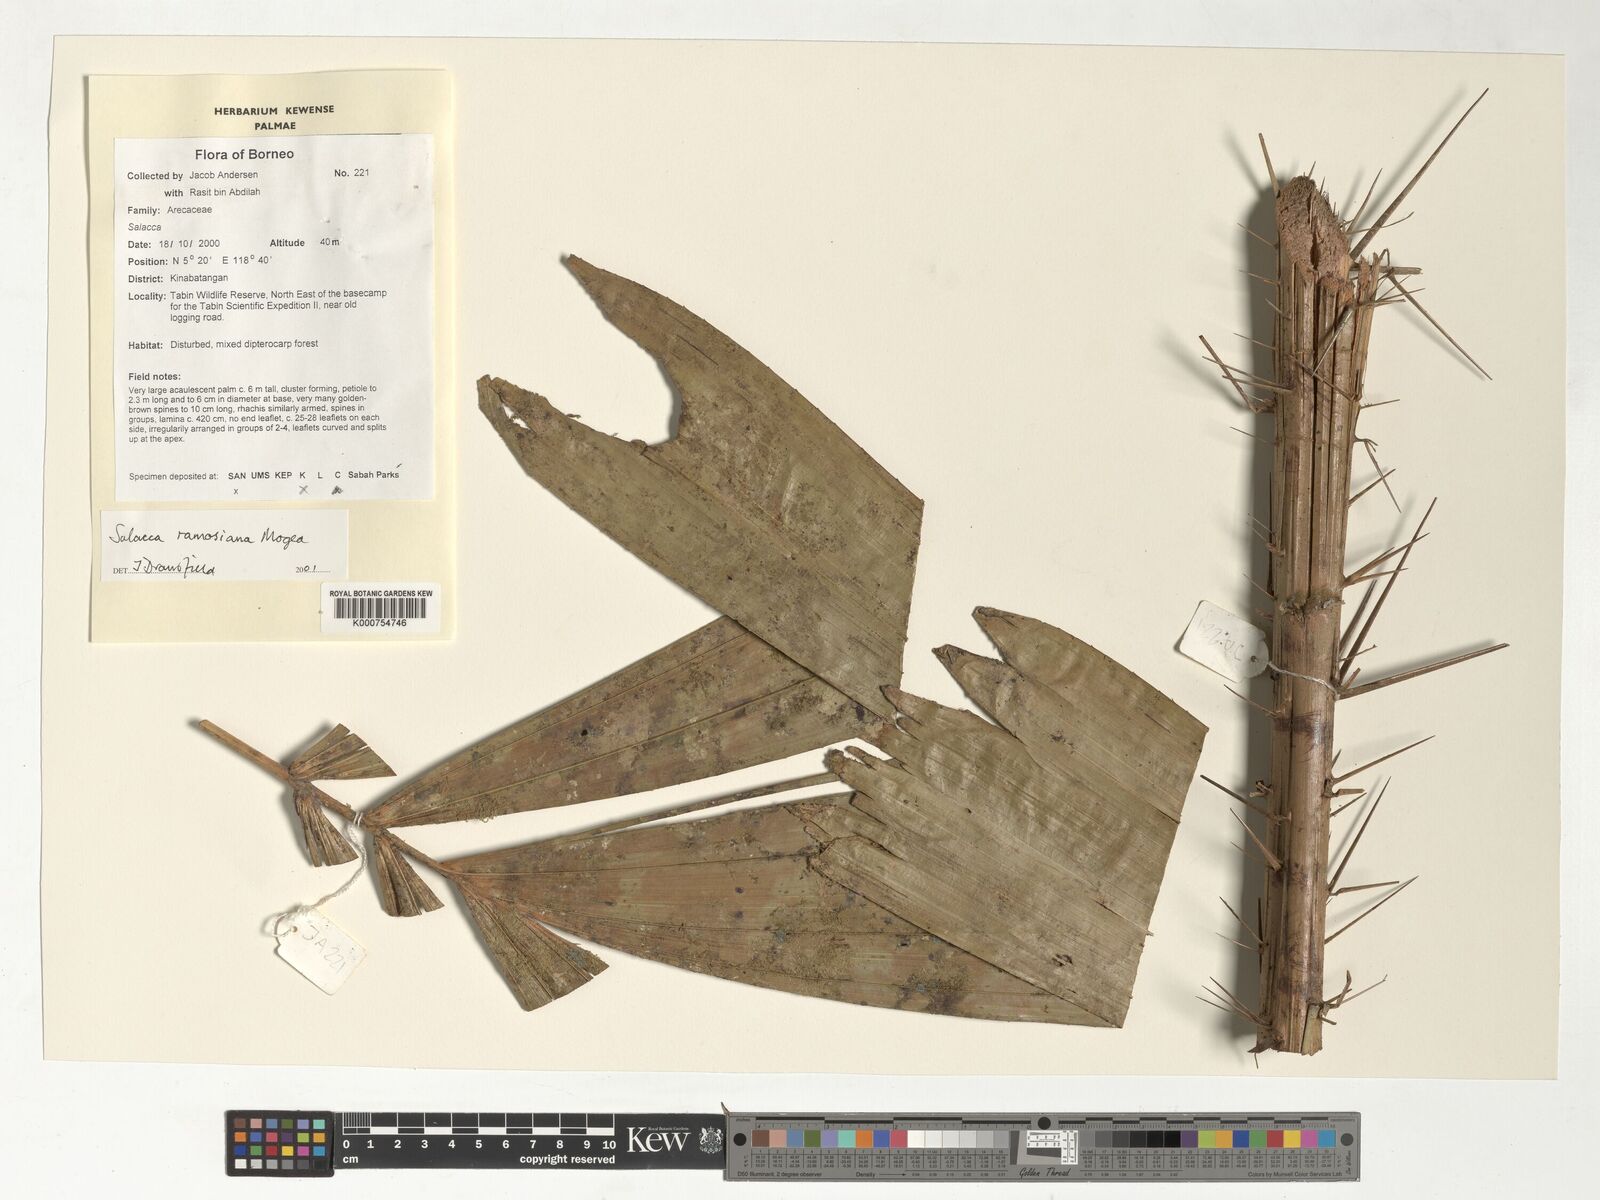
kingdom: Plantae
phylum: Tracheophyta
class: Liliopsida
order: Arecales
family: Arecaceae
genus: Salacca
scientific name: Salacca ramosiana
